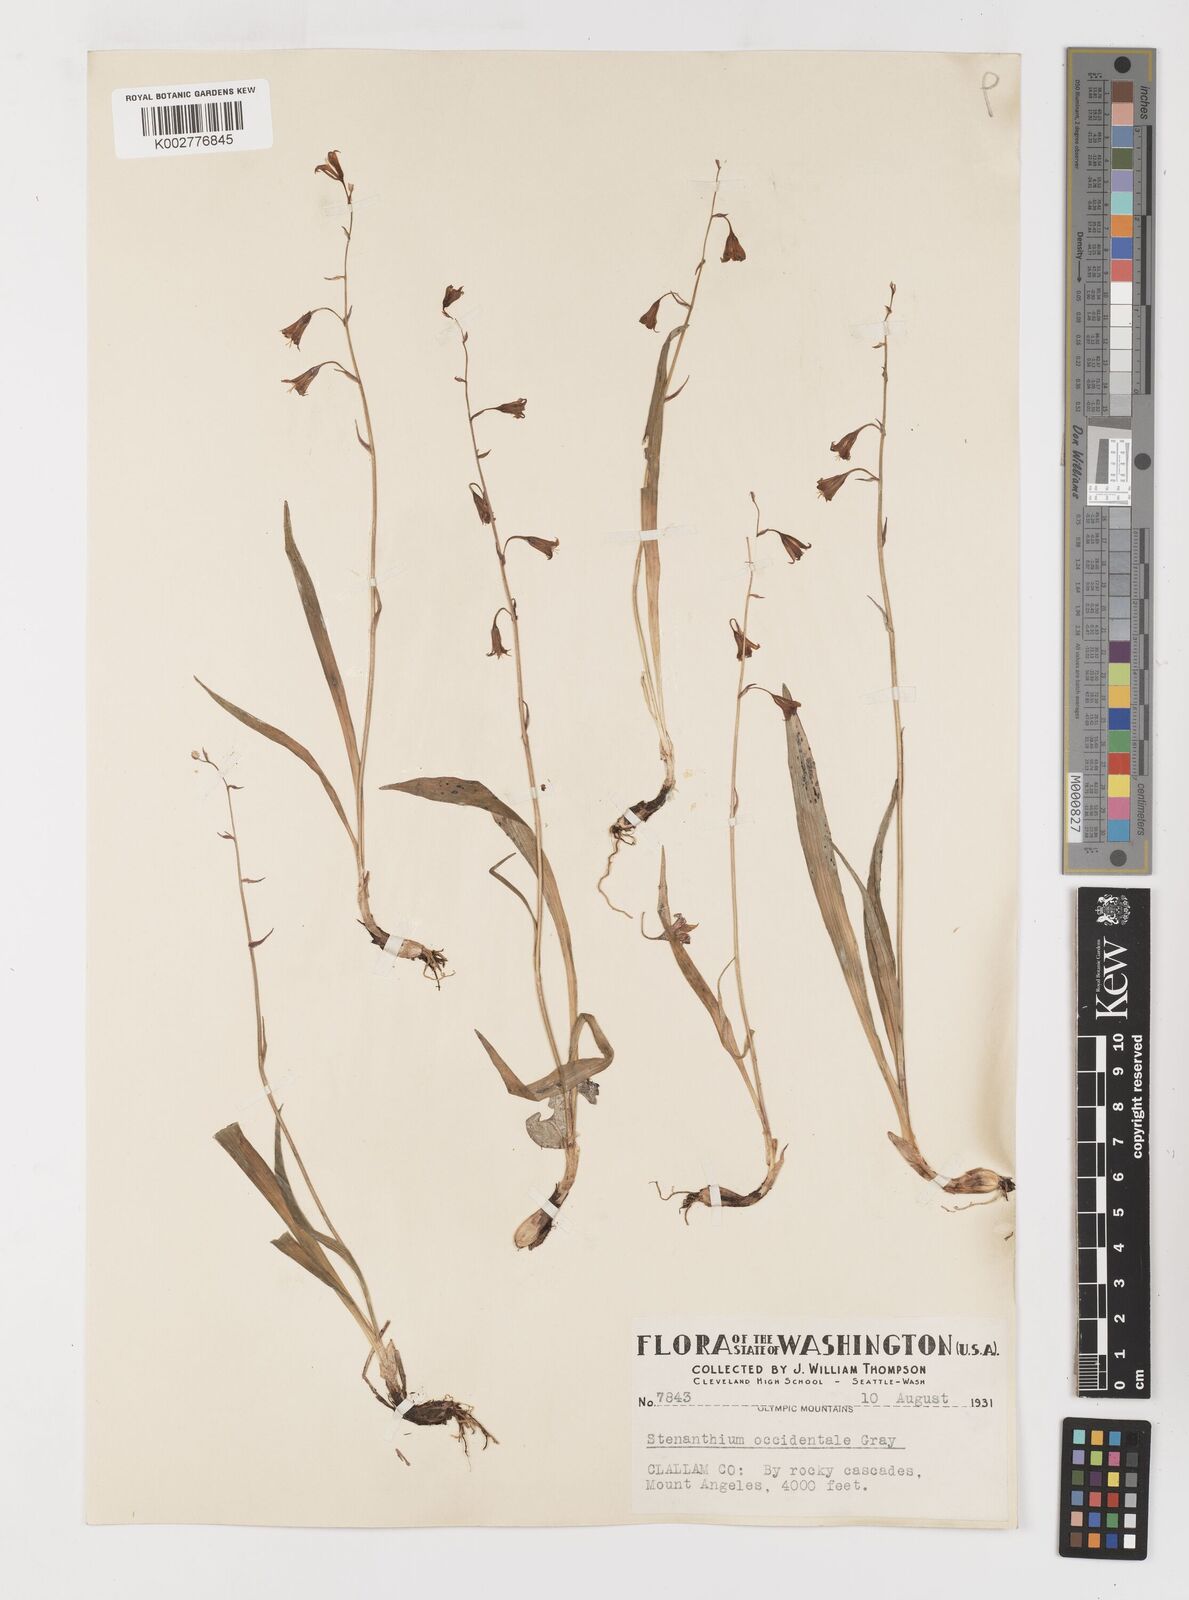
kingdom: Plantae
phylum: Tracheophyta
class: Liliopsida
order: Liliales
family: Melanthiaceae
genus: Anticlea
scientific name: Anticlea occidentalis
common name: Bronze-bells
